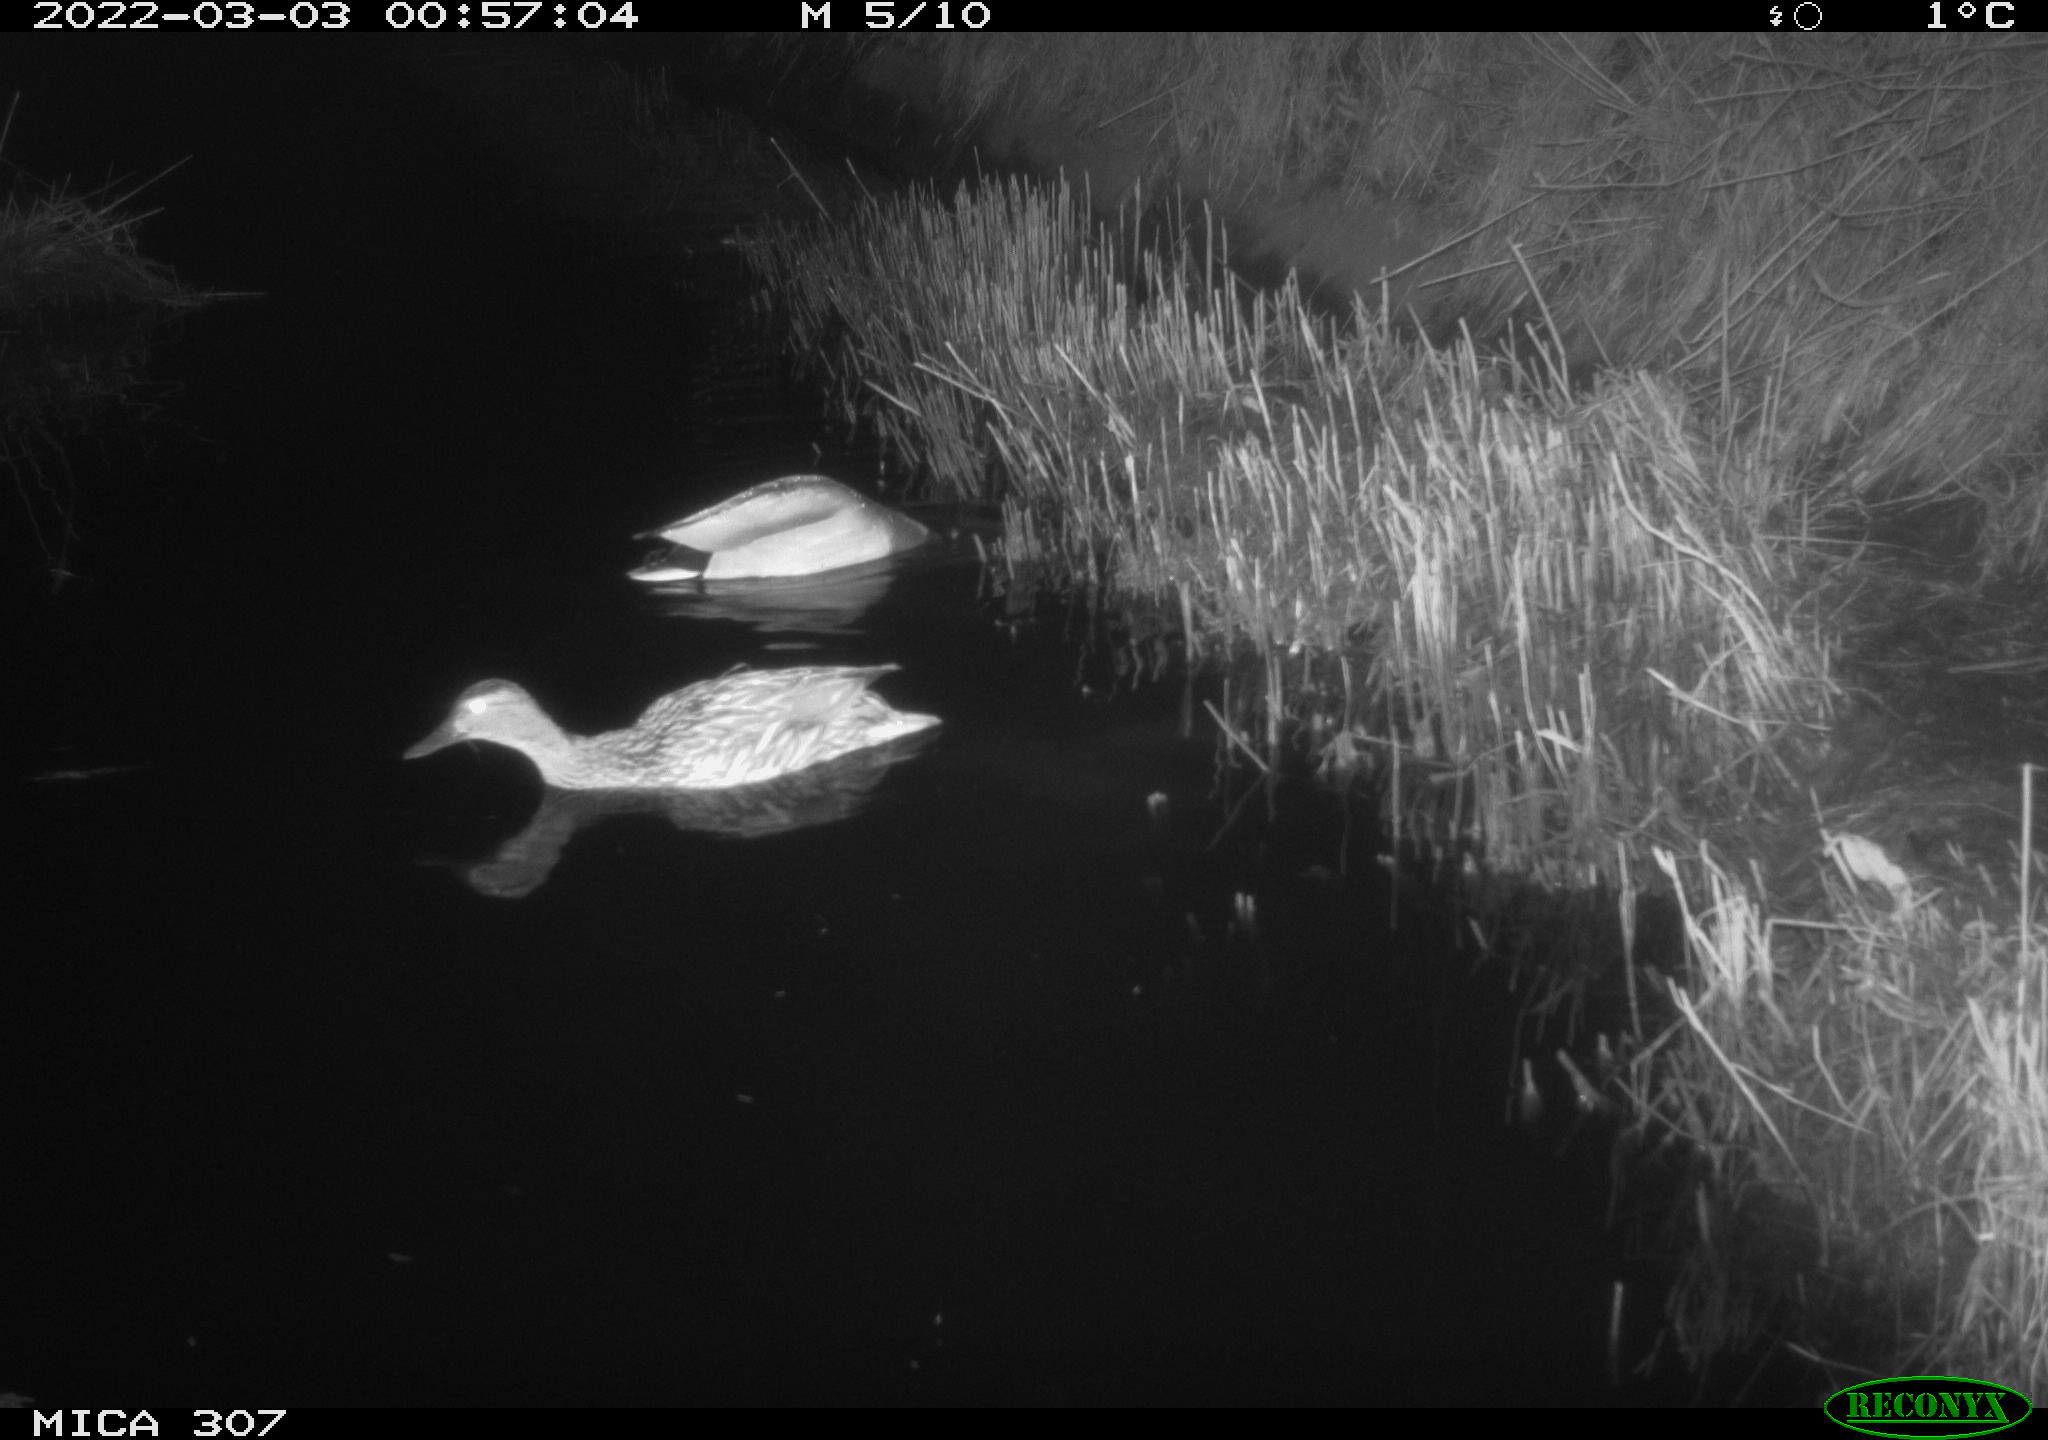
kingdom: Animalia
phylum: Chordata
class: Aves
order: Anseriformes
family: Anatidae
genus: Anas
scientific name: Anas platyrhynchos
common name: Mallard
